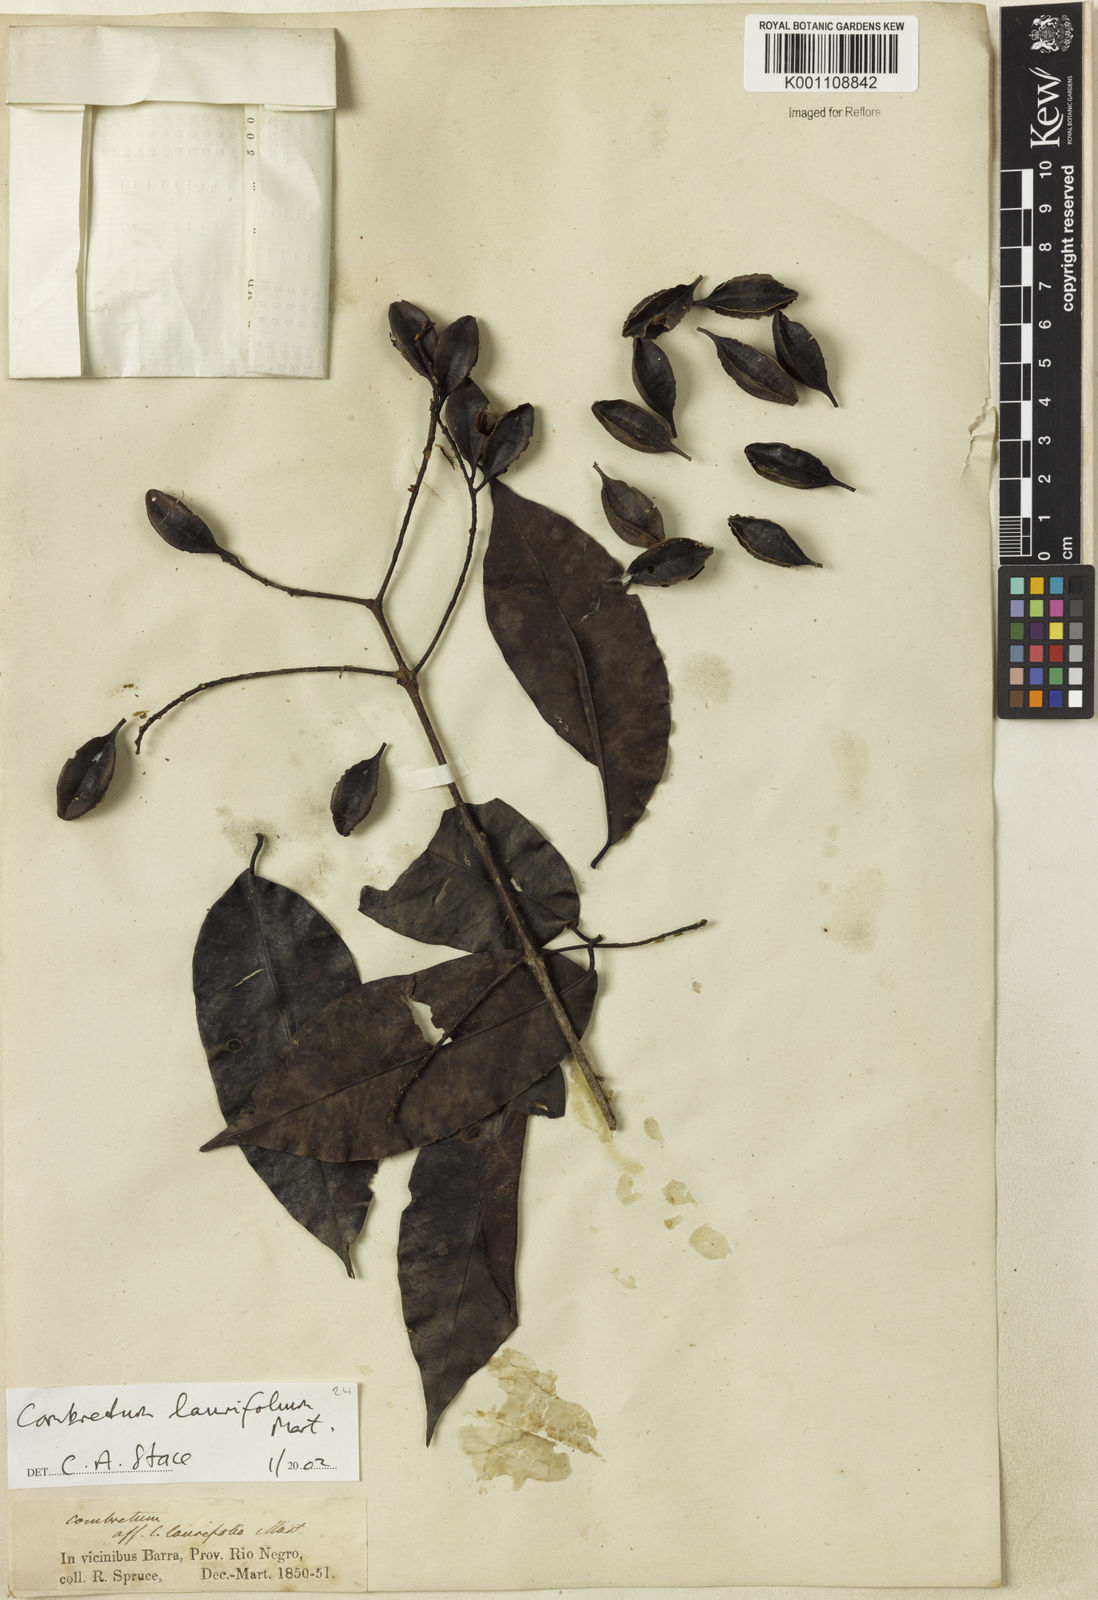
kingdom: Plantae
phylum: Tracheophyta
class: Magnoliopsida
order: Myrtales
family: Combretaceae
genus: Combretum
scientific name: Combretum laurifolium
